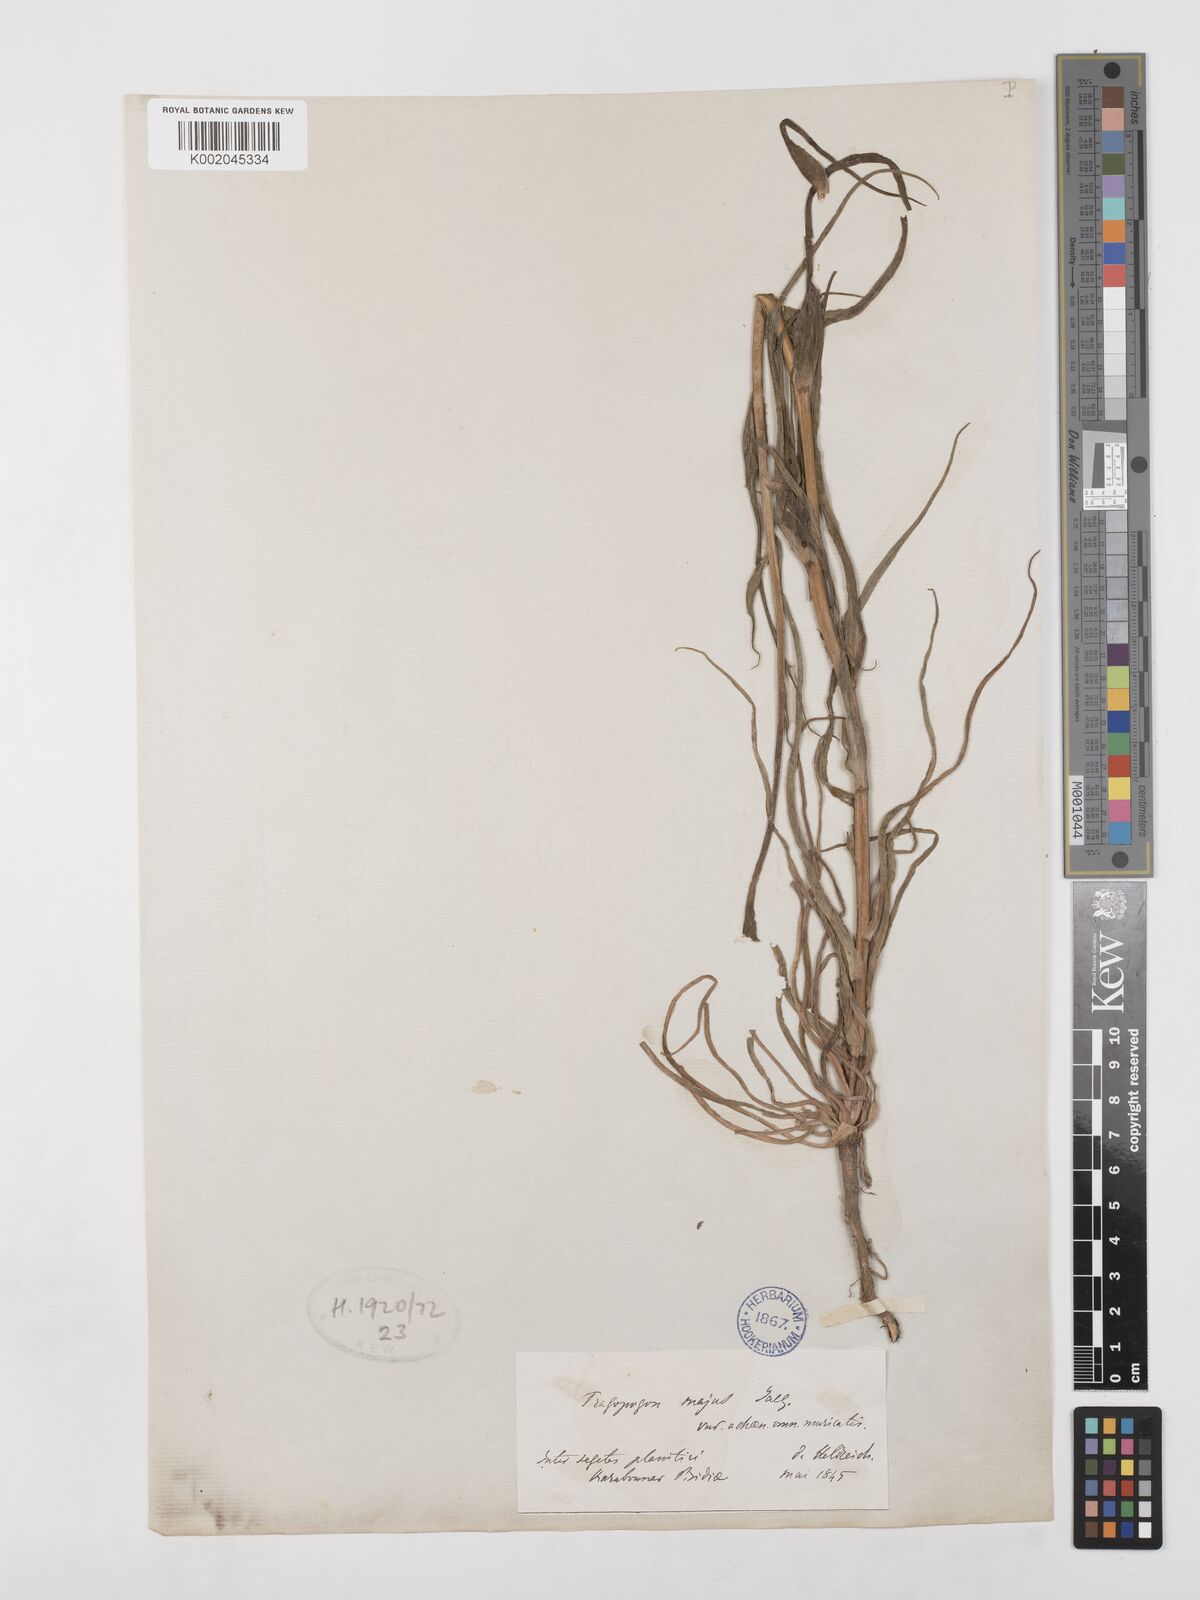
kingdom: Plantae
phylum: Tracheophyta
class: Magnoliopsida
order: Asterales
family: Asteraceae
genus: Tragopogon
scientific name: Tragopogon dubius
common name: Yellow salsify
